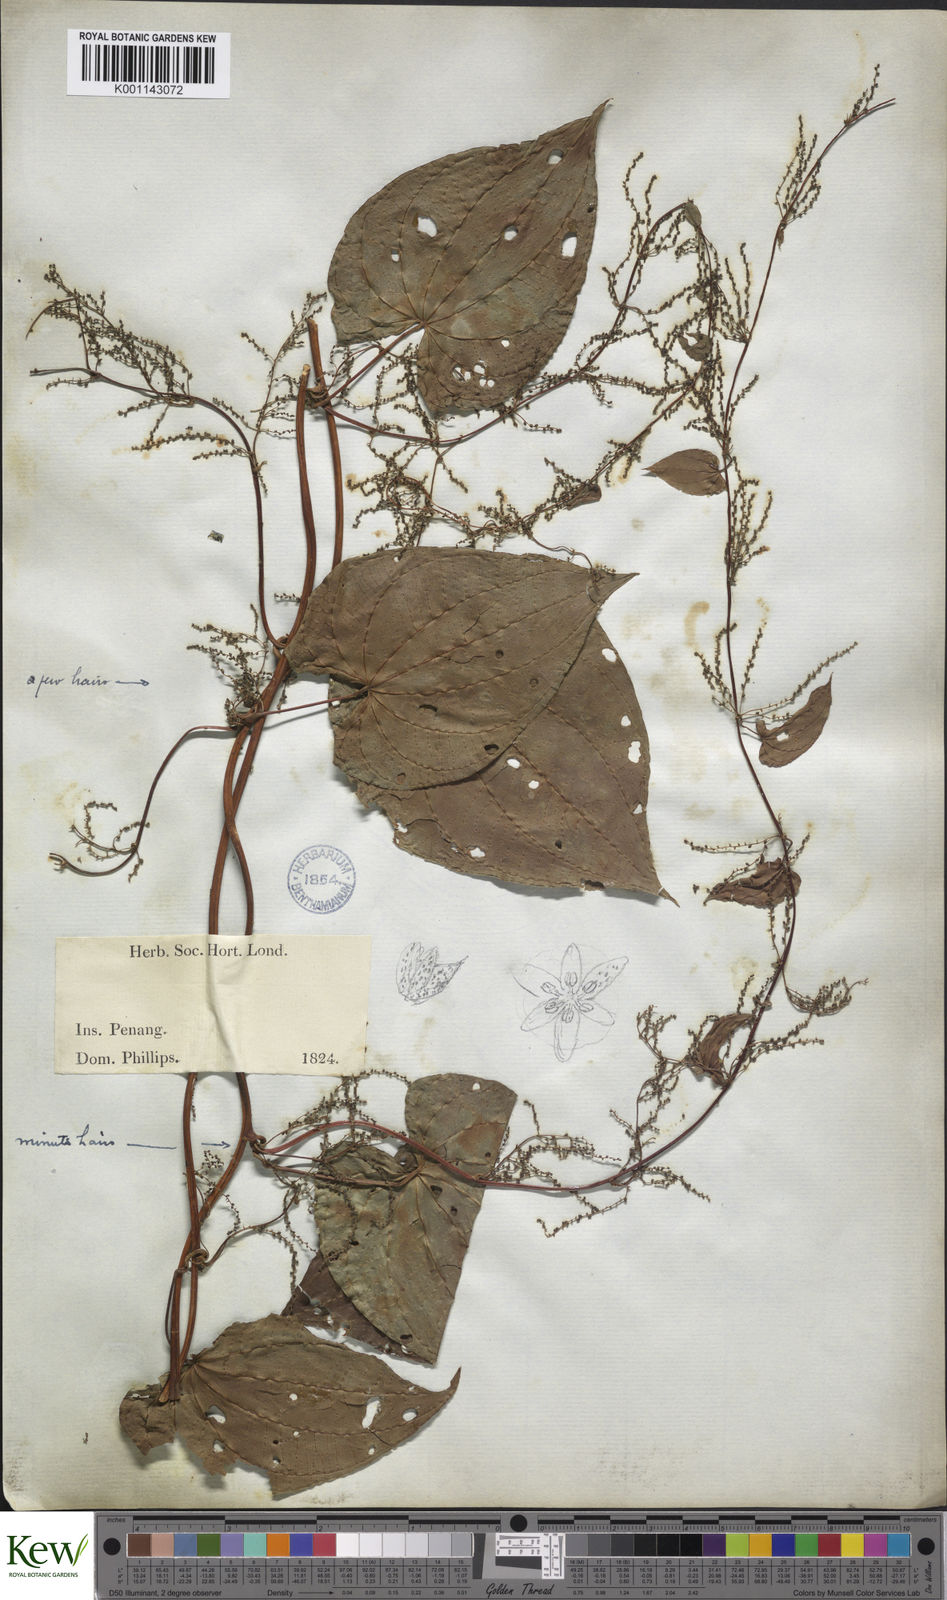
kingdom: Plantae
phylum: Tracheophyta
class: Liliopsida
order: Dioscoreales
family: Dioscoreaceae
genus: Dioscorea
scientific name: Dioscorea bulbifera
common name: Air yam
